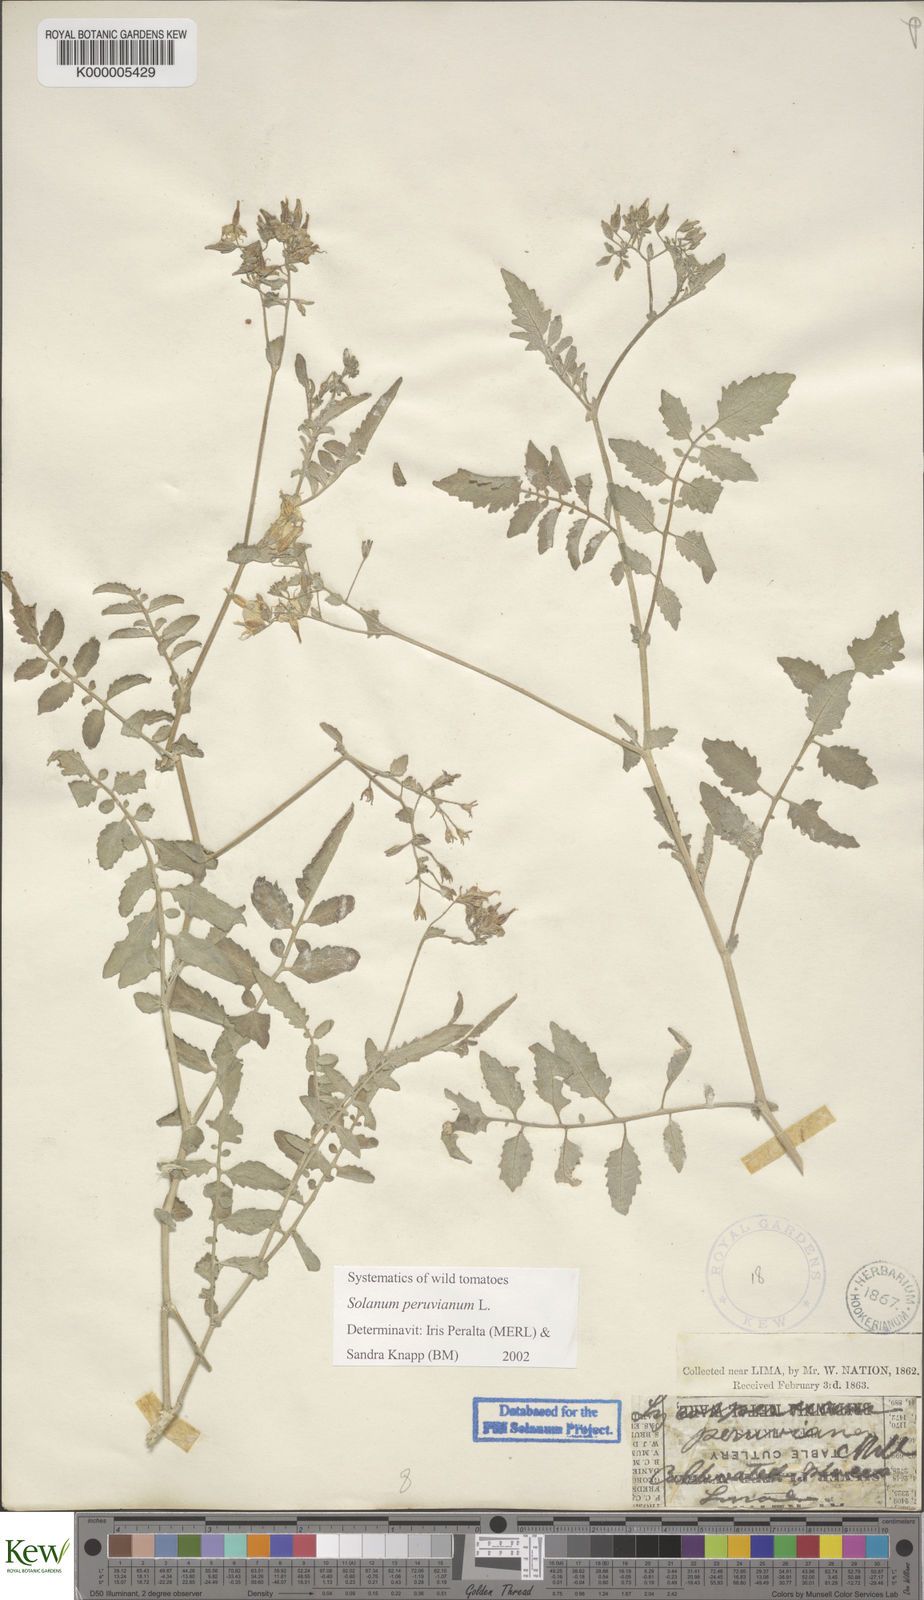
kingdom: Plantae
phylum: Tracheophyta
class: Magnoliopsida
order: Solanales
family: Solanaceae
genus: Solanum
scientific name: Solanum peruvianum
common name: Peruvian nightshade
